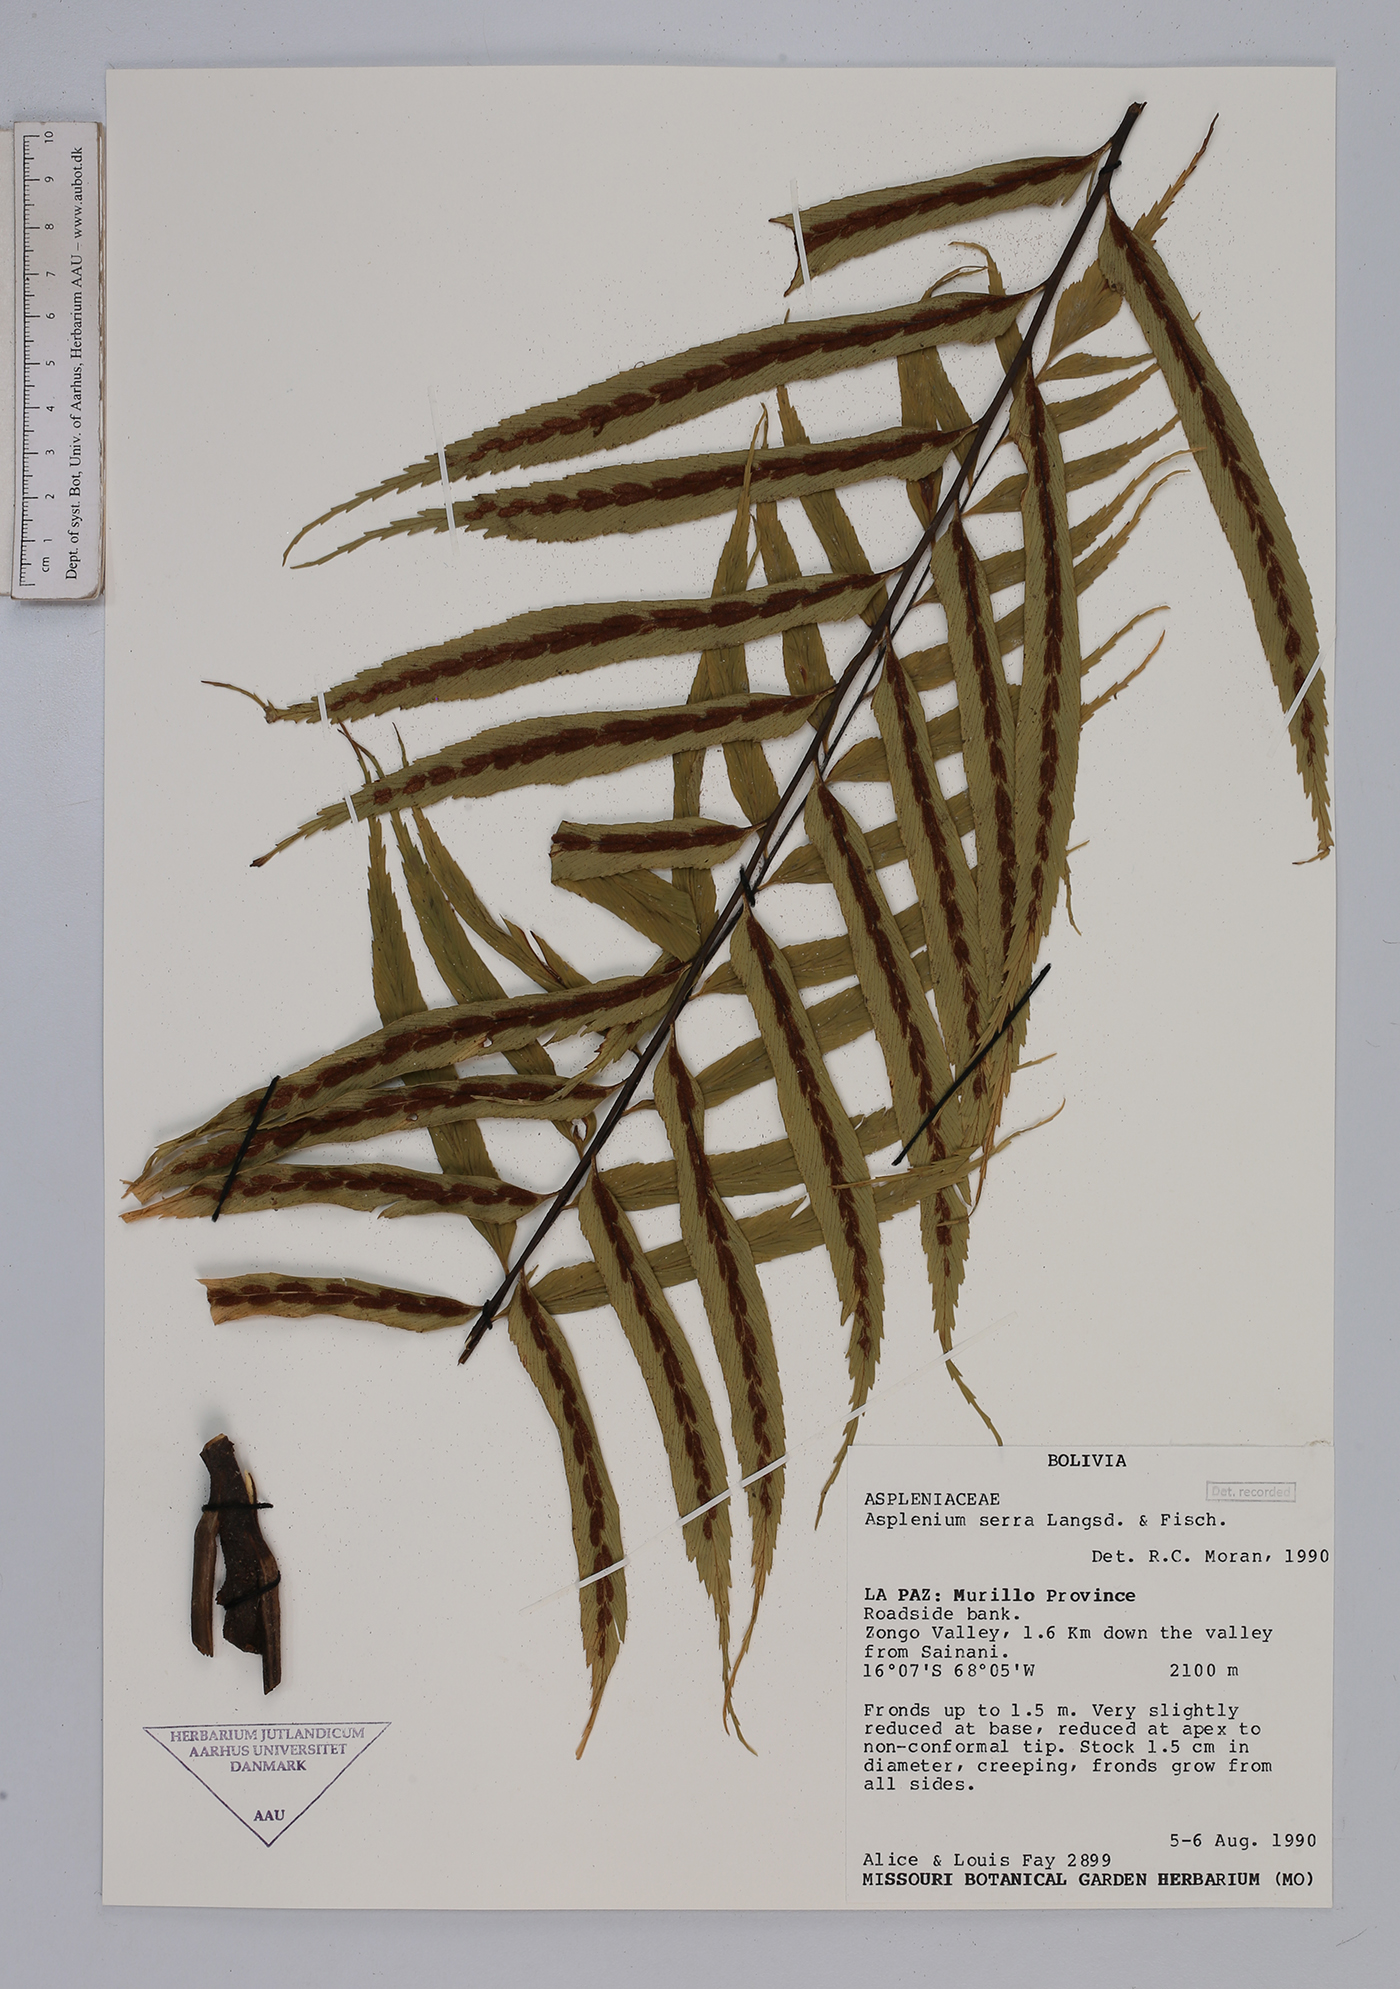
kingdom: Plantae
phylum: Tracheophyta
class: Polypodiopsida
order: Polypodiales
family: Aspleniaceae
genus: Asplenium
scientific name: Asplenium serra
